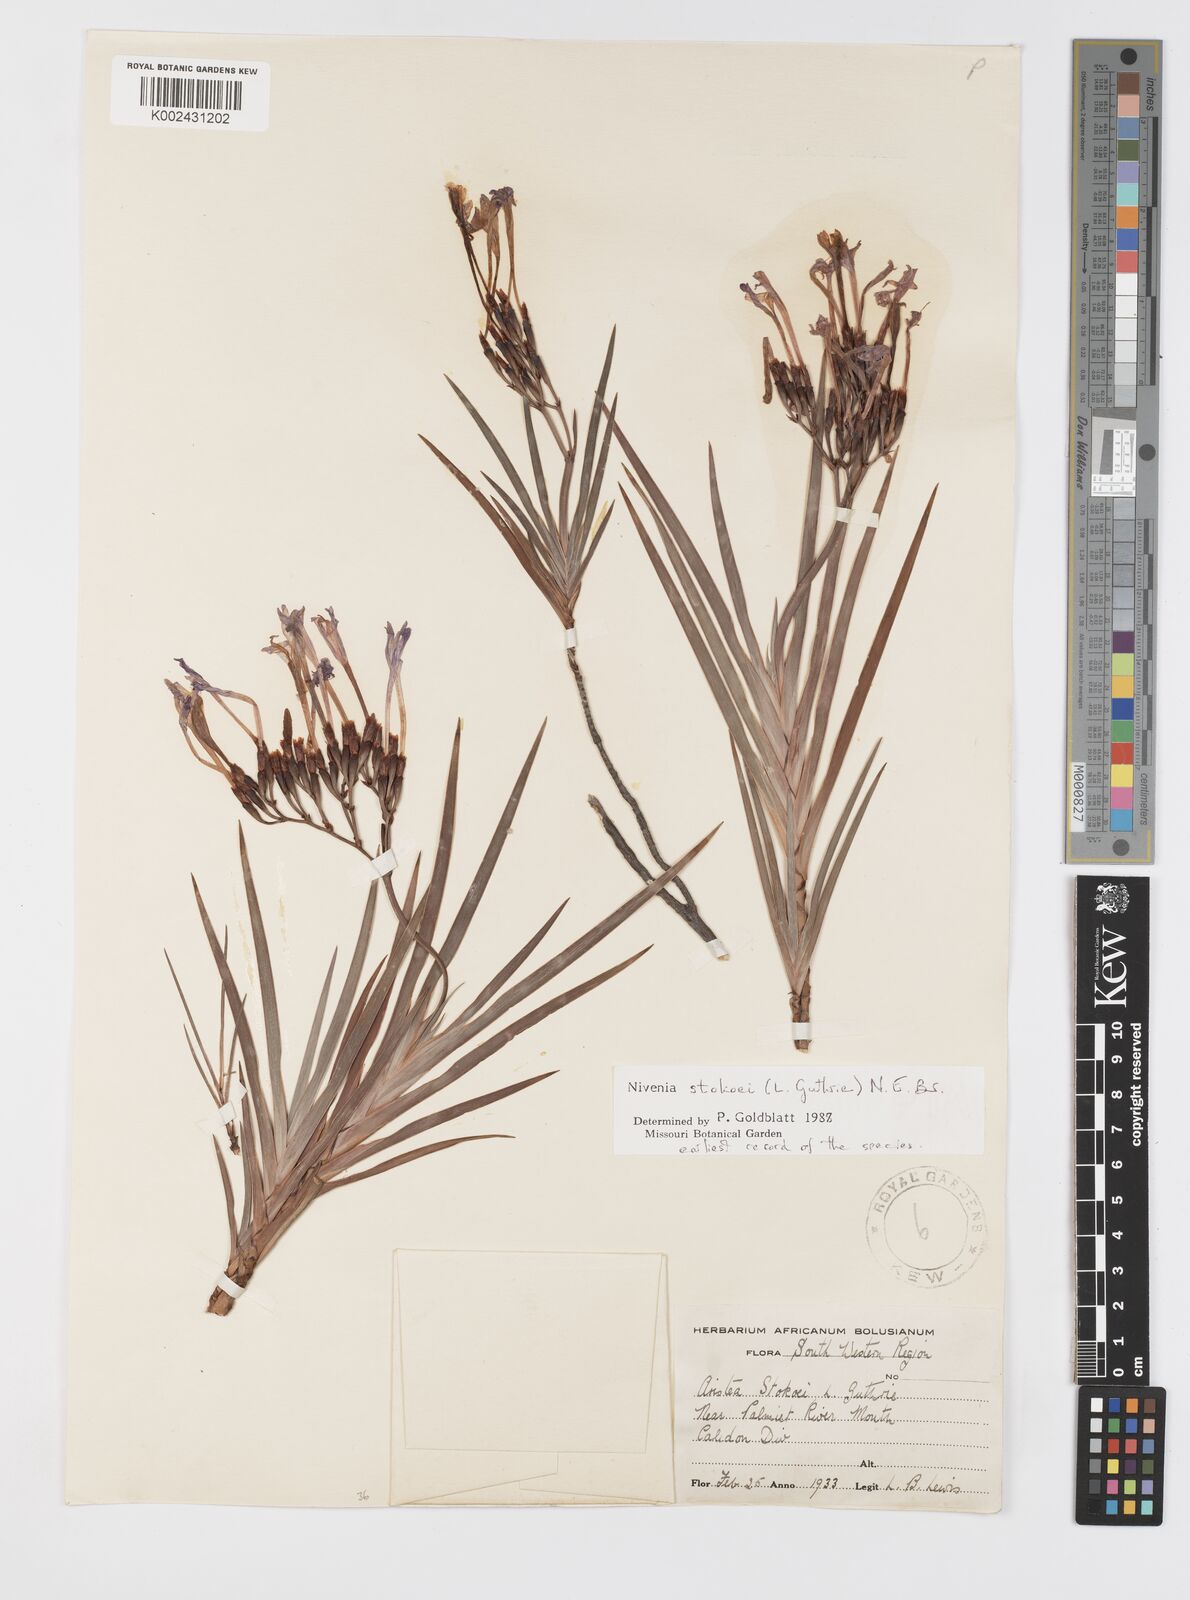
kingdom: Plantae
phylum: Tracheophyta
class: Liliopsida
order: Asparagales
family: Iridaceae
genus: Nivenia
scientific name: Nivenia stokoei
